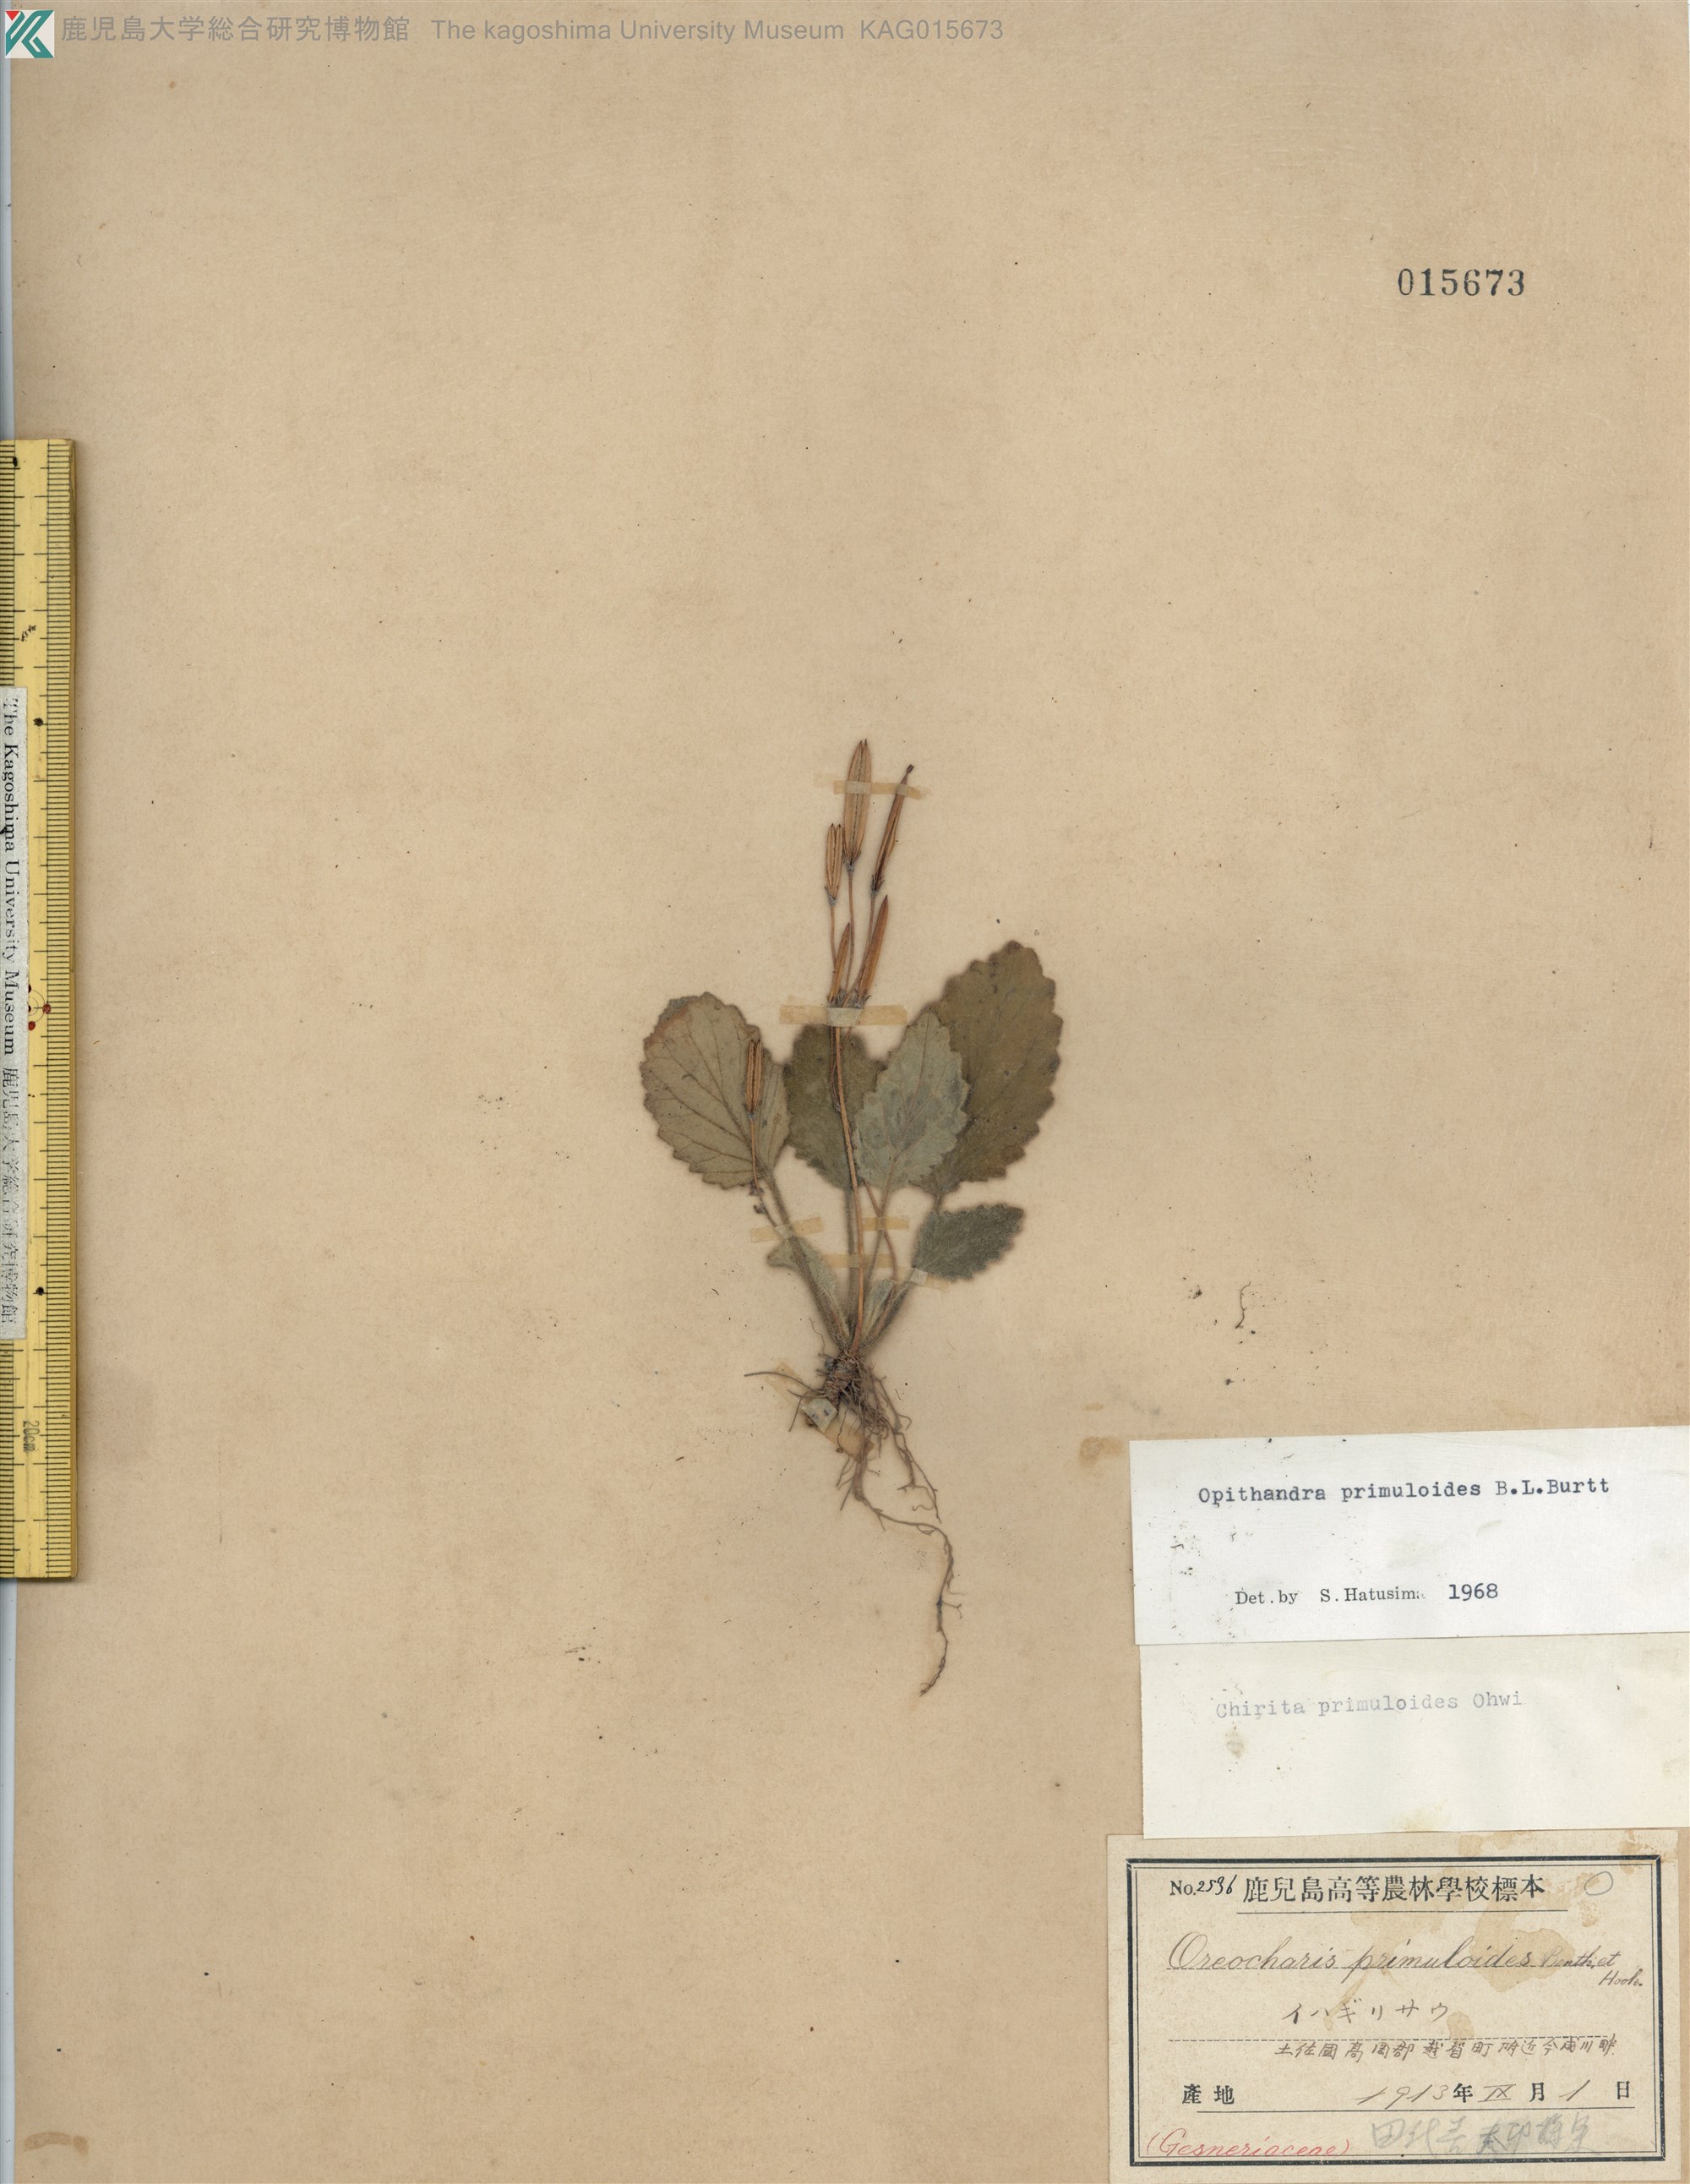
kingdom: Plantae
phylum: Tracheophyta
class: Magnoliopsida
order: Lamiales
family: Gesneriaceae
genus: Oreocharis
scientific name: Oreocharis primuloides
